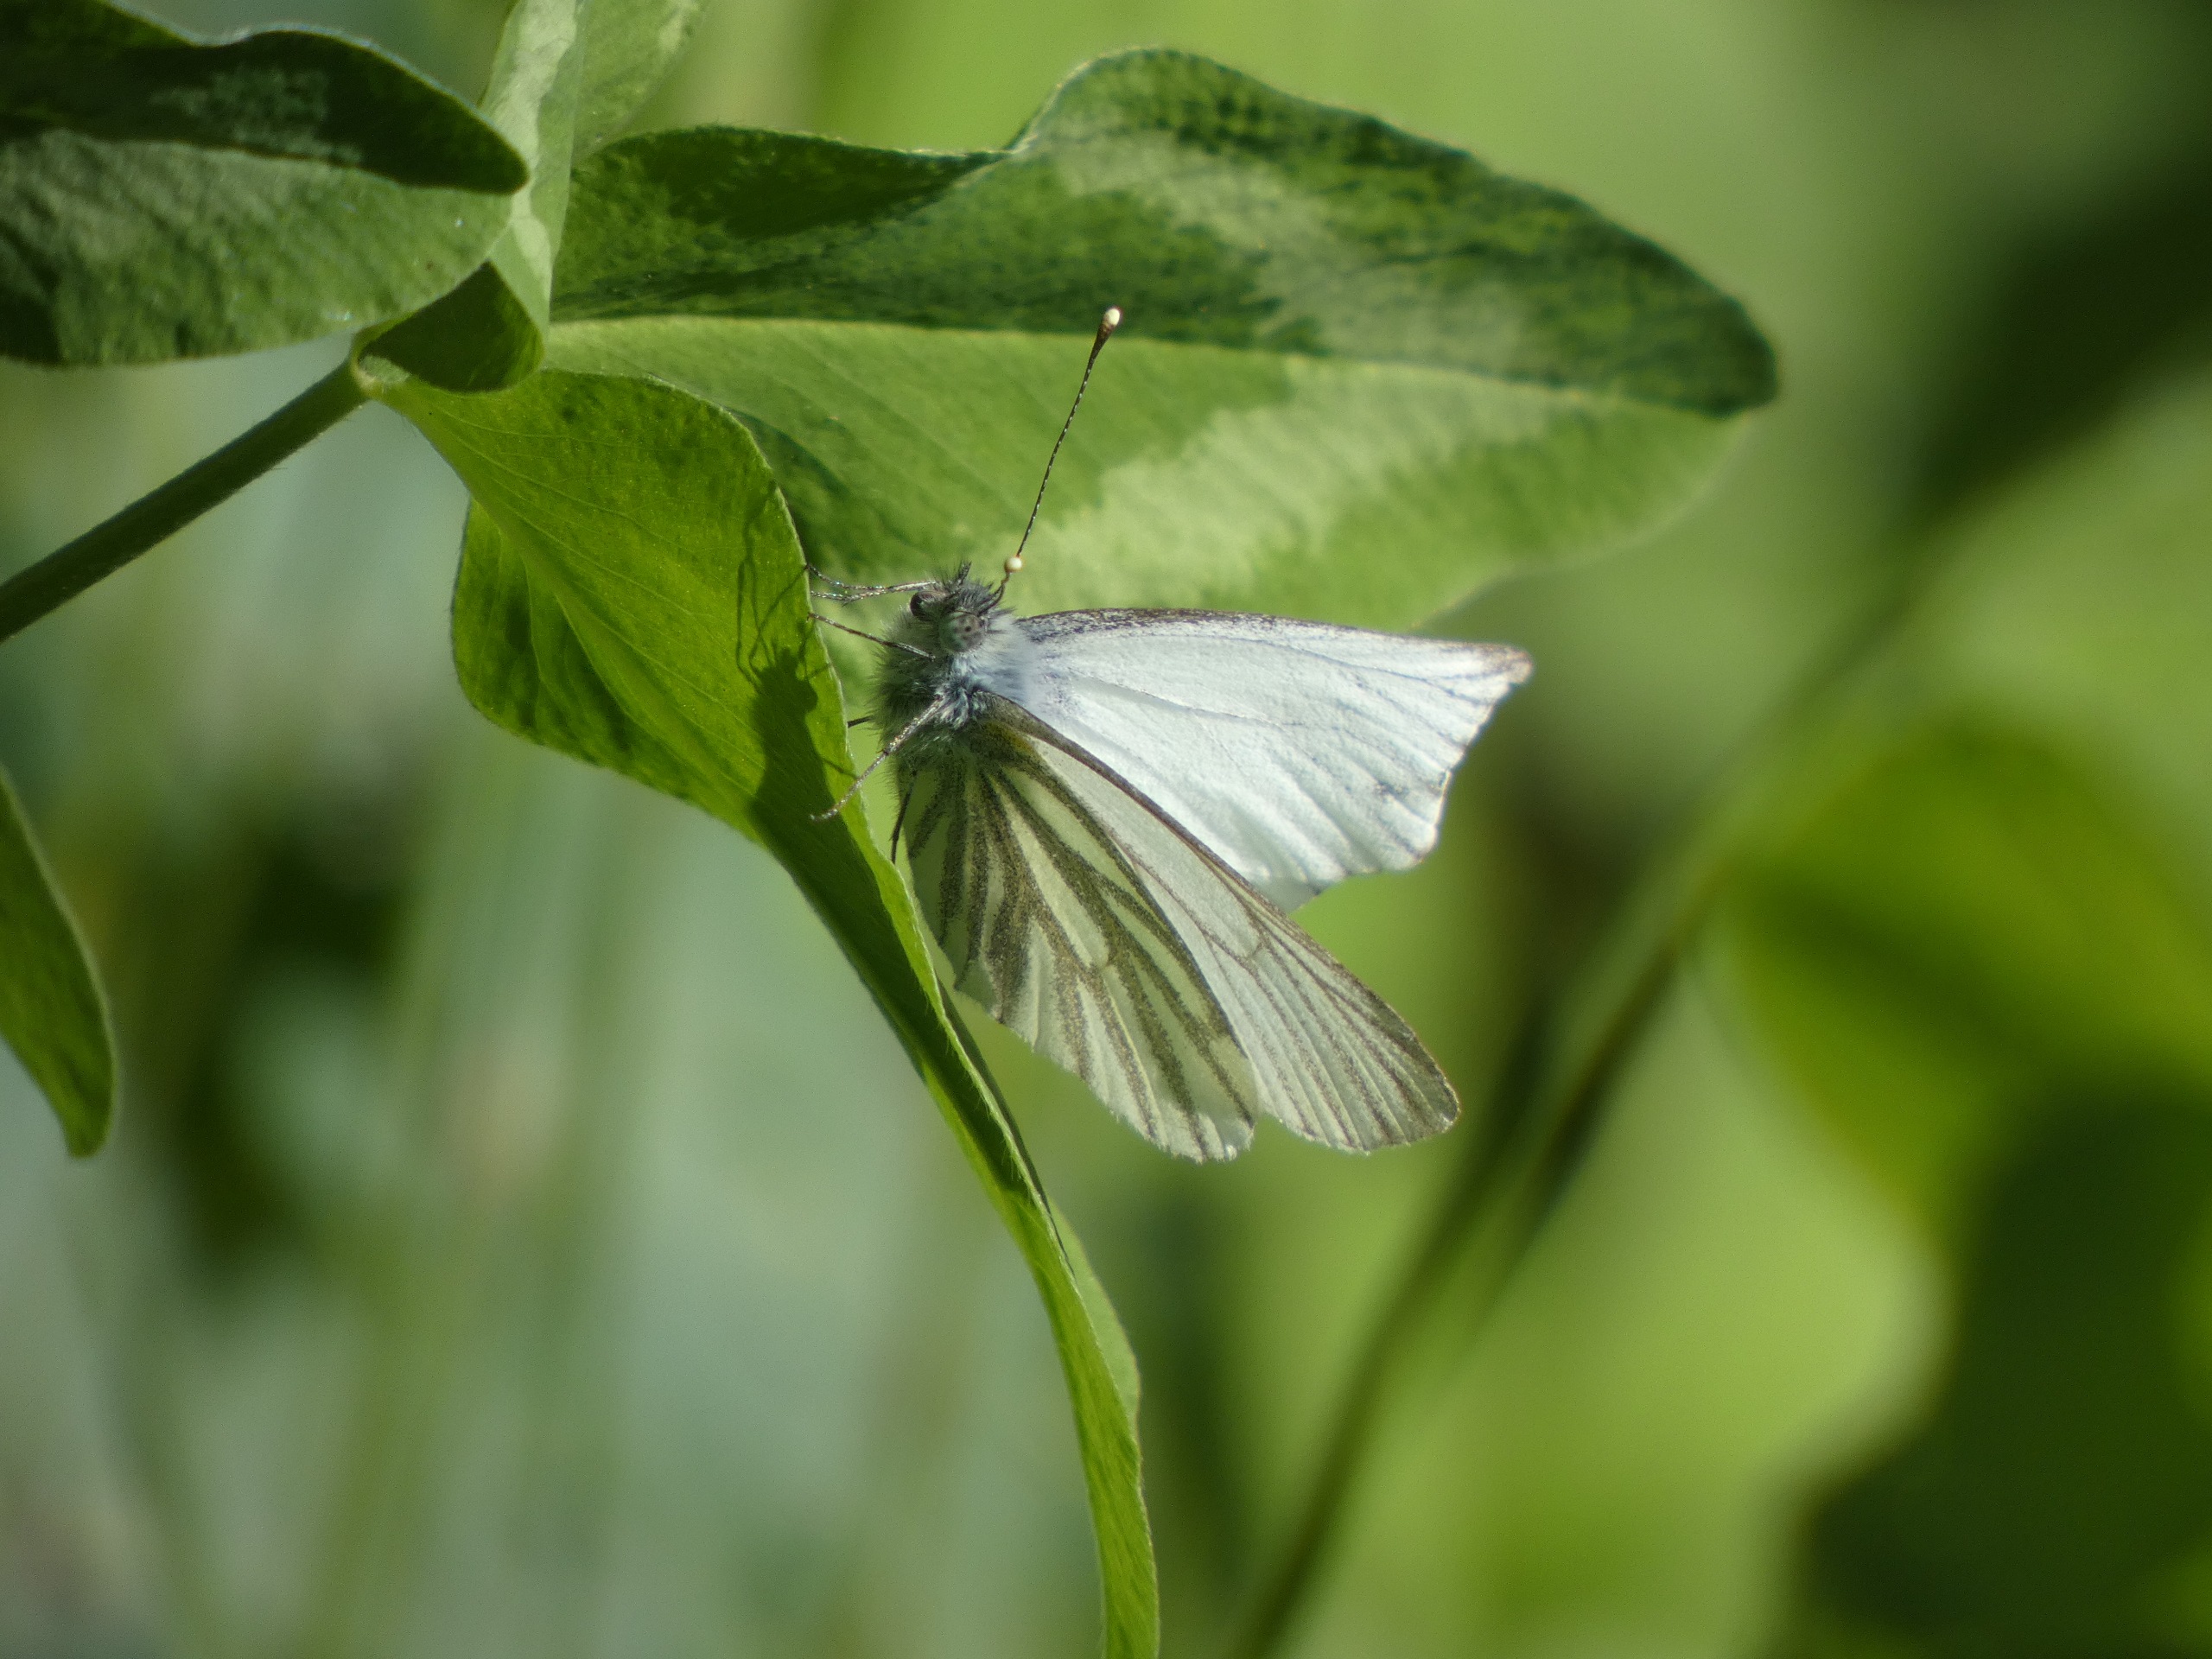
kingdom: Animalia
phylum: Arthropoda
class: Insecta
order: Lepidoptera
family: Pieridae
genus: Pieris
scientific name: Pieris napi
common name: Grønåret kålsommerfugl
